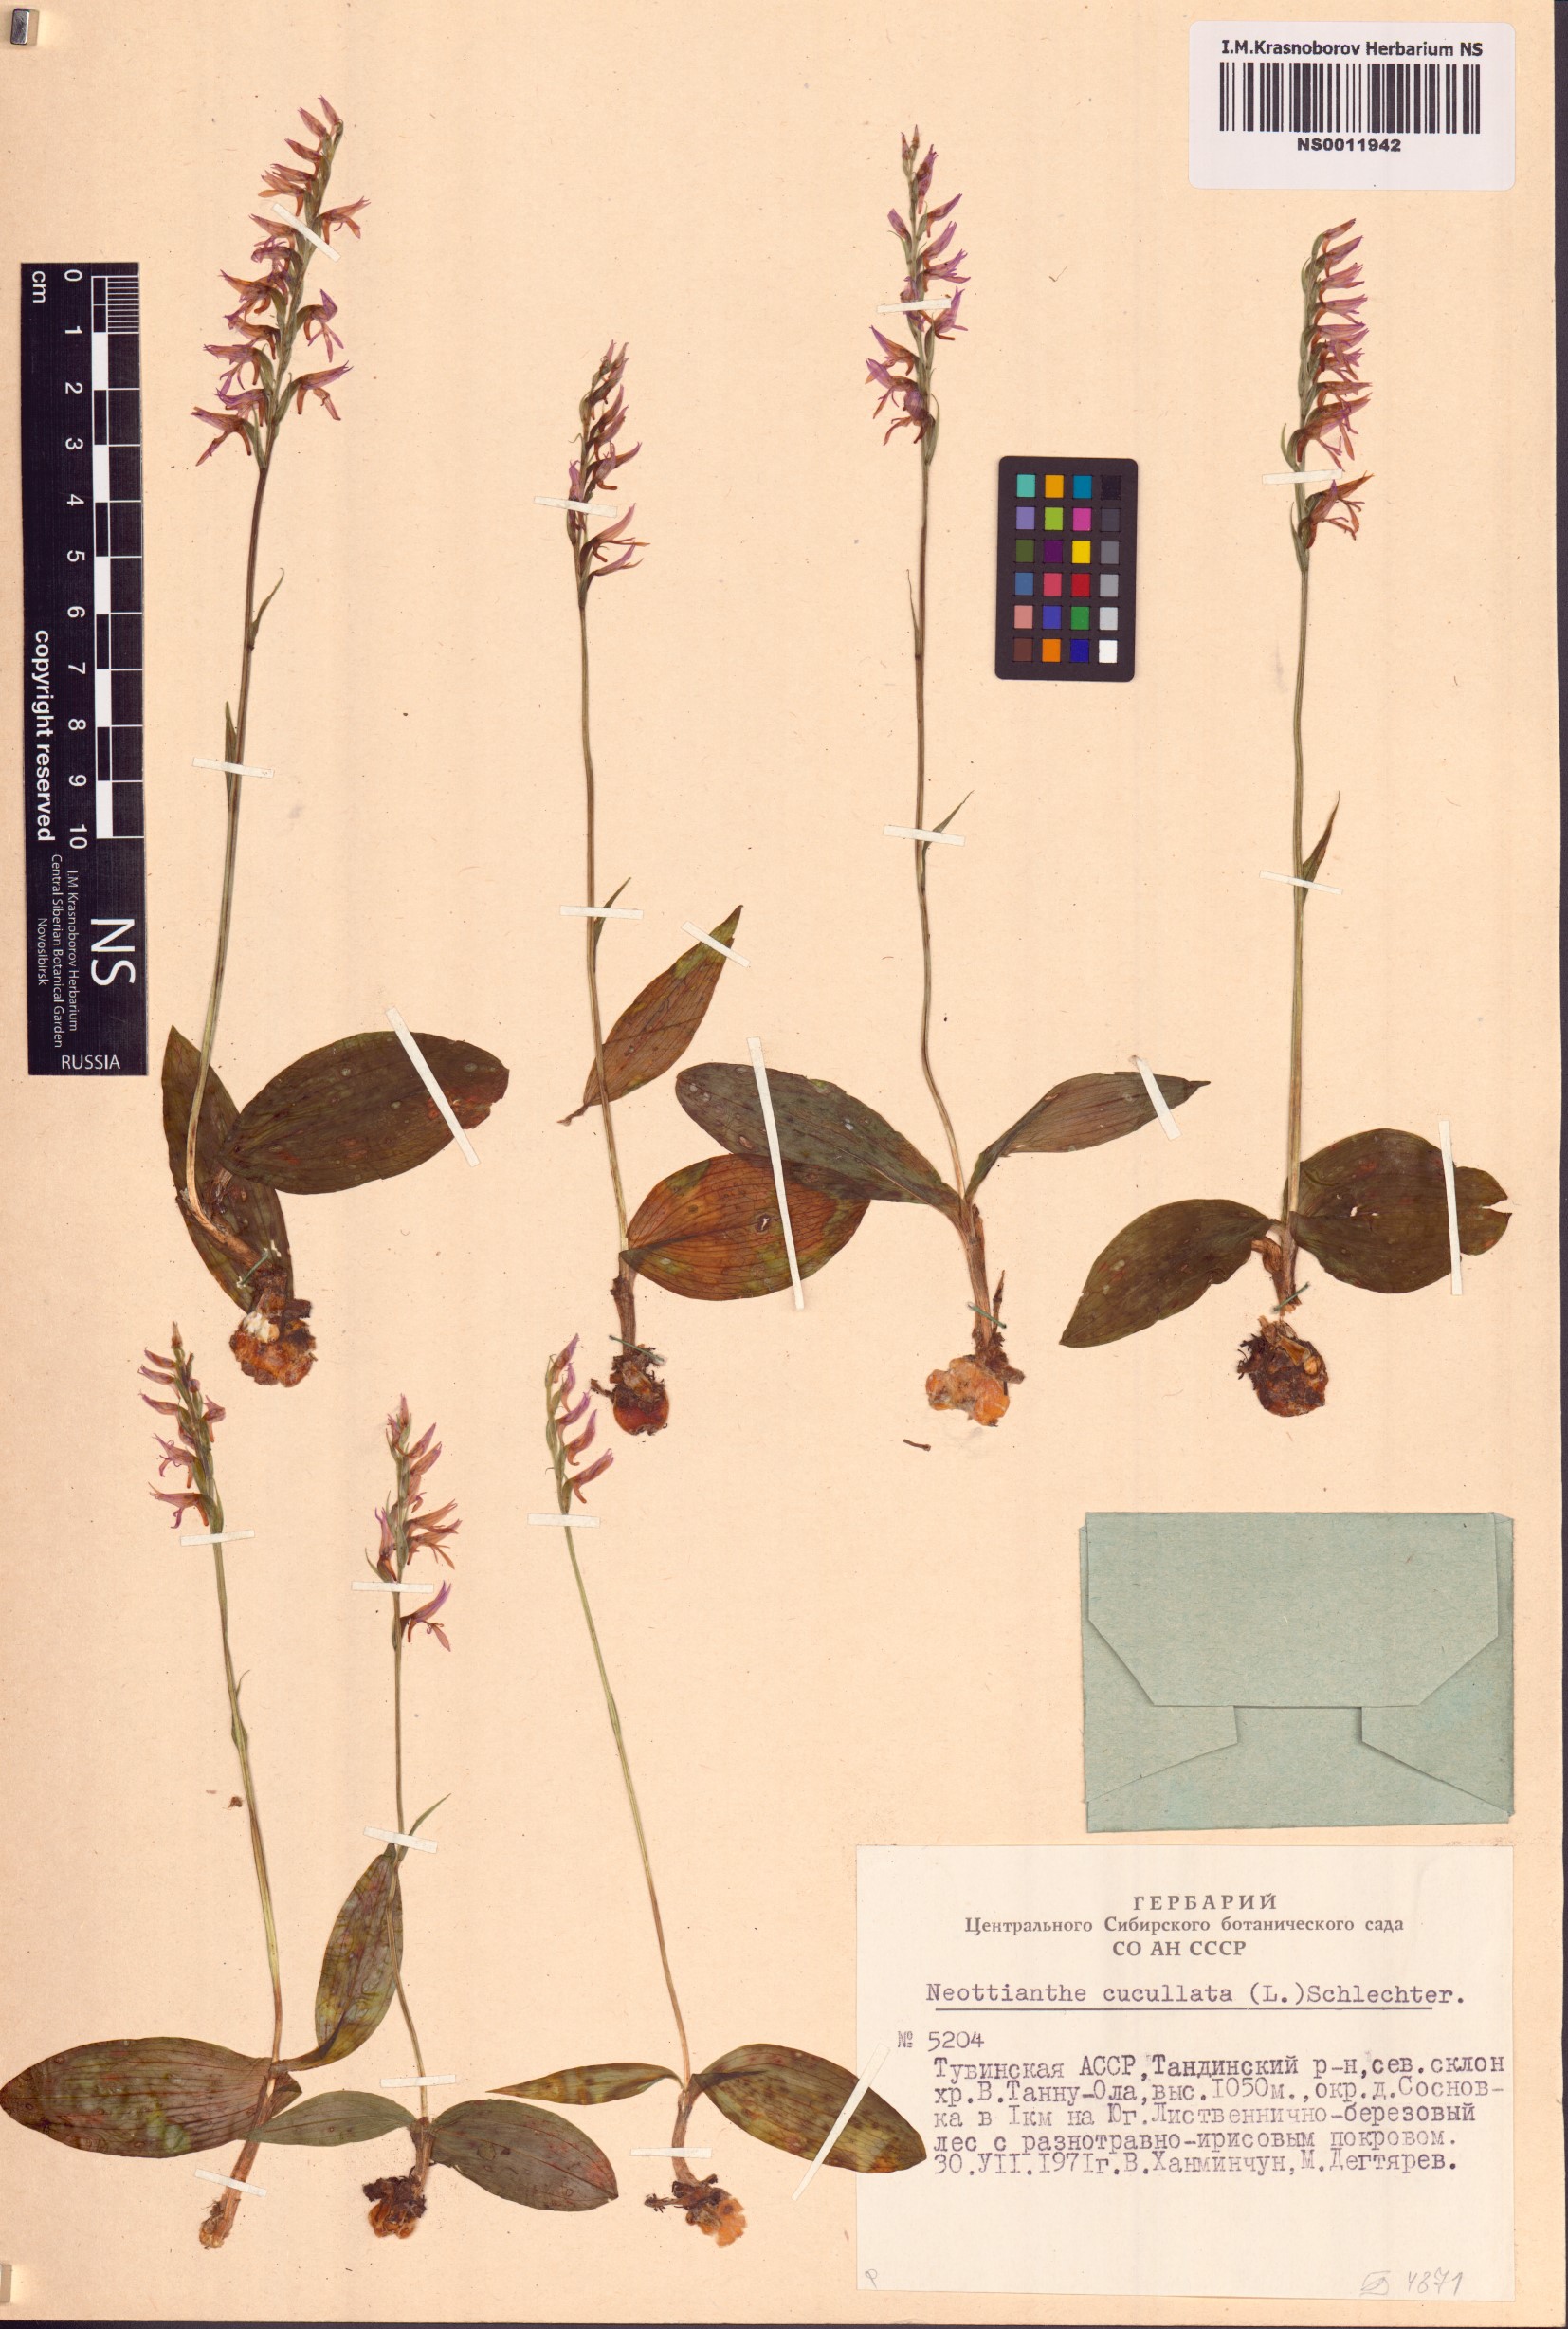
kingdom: Plantae
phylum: Tracheophyta
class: Liliopsida
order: Asparagales
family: Orchidaceae
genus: Hemipilia
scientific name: Hemipilia cucullata
